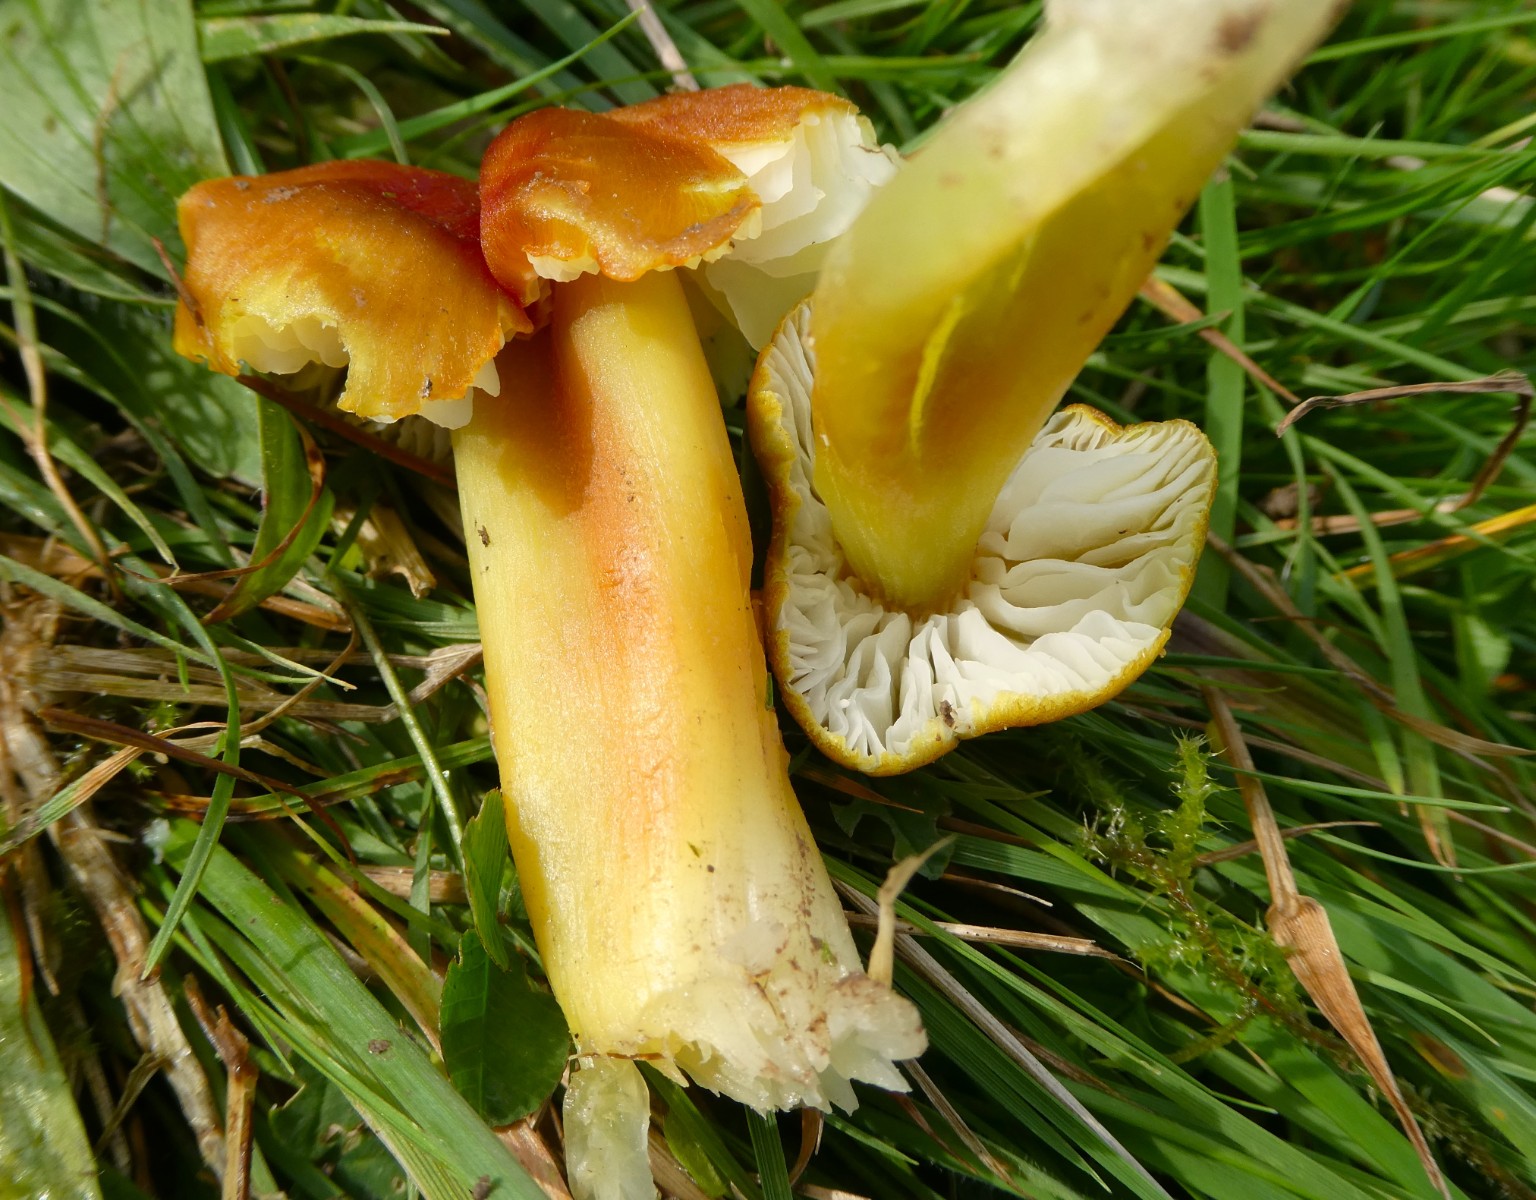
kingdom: Fungi
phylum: Basidiomycota
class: Agaricomycetes
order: Agaricales
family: Hygrophoraceae
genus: Hygrocybe
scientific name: Hygrocybe citrinovirens
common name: grøngul vokshat
